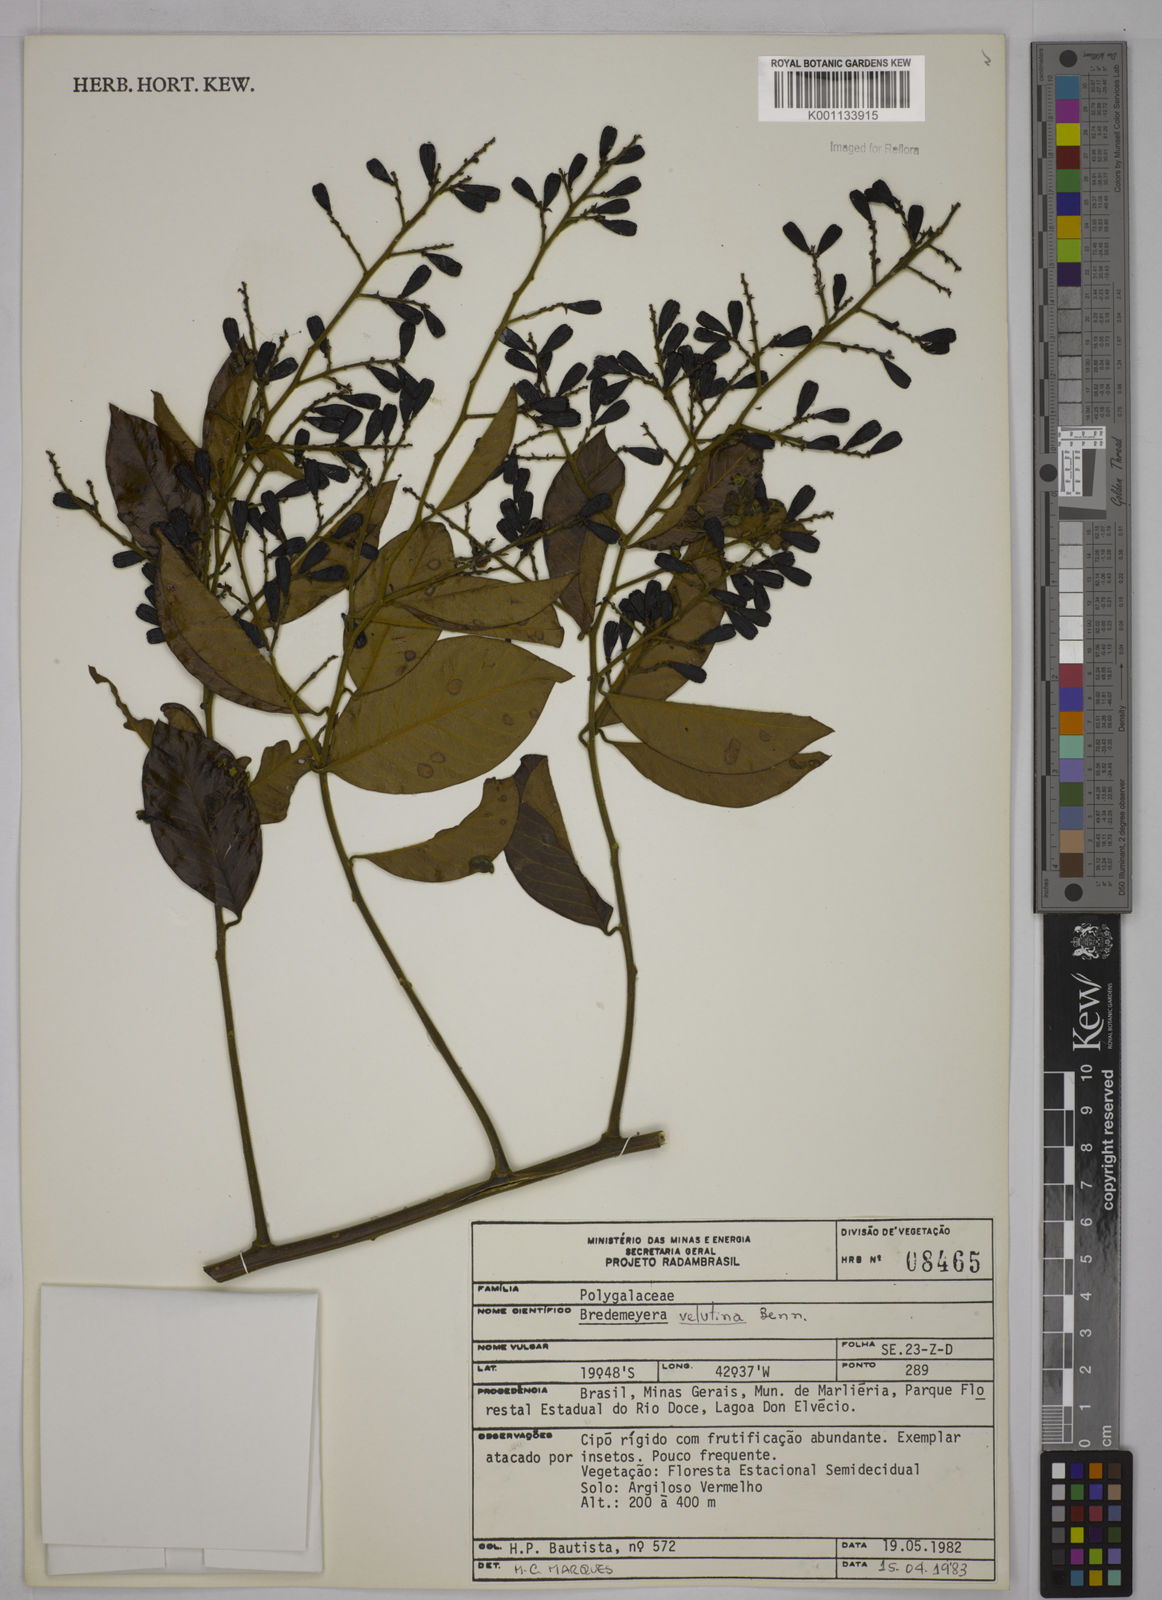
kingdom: Plantae
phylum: Tracheophyta
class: Magnoliopsida
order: Fabales
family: Polygalaceae
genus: Bredemeyera
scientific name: Bredemeyera hebeclada
